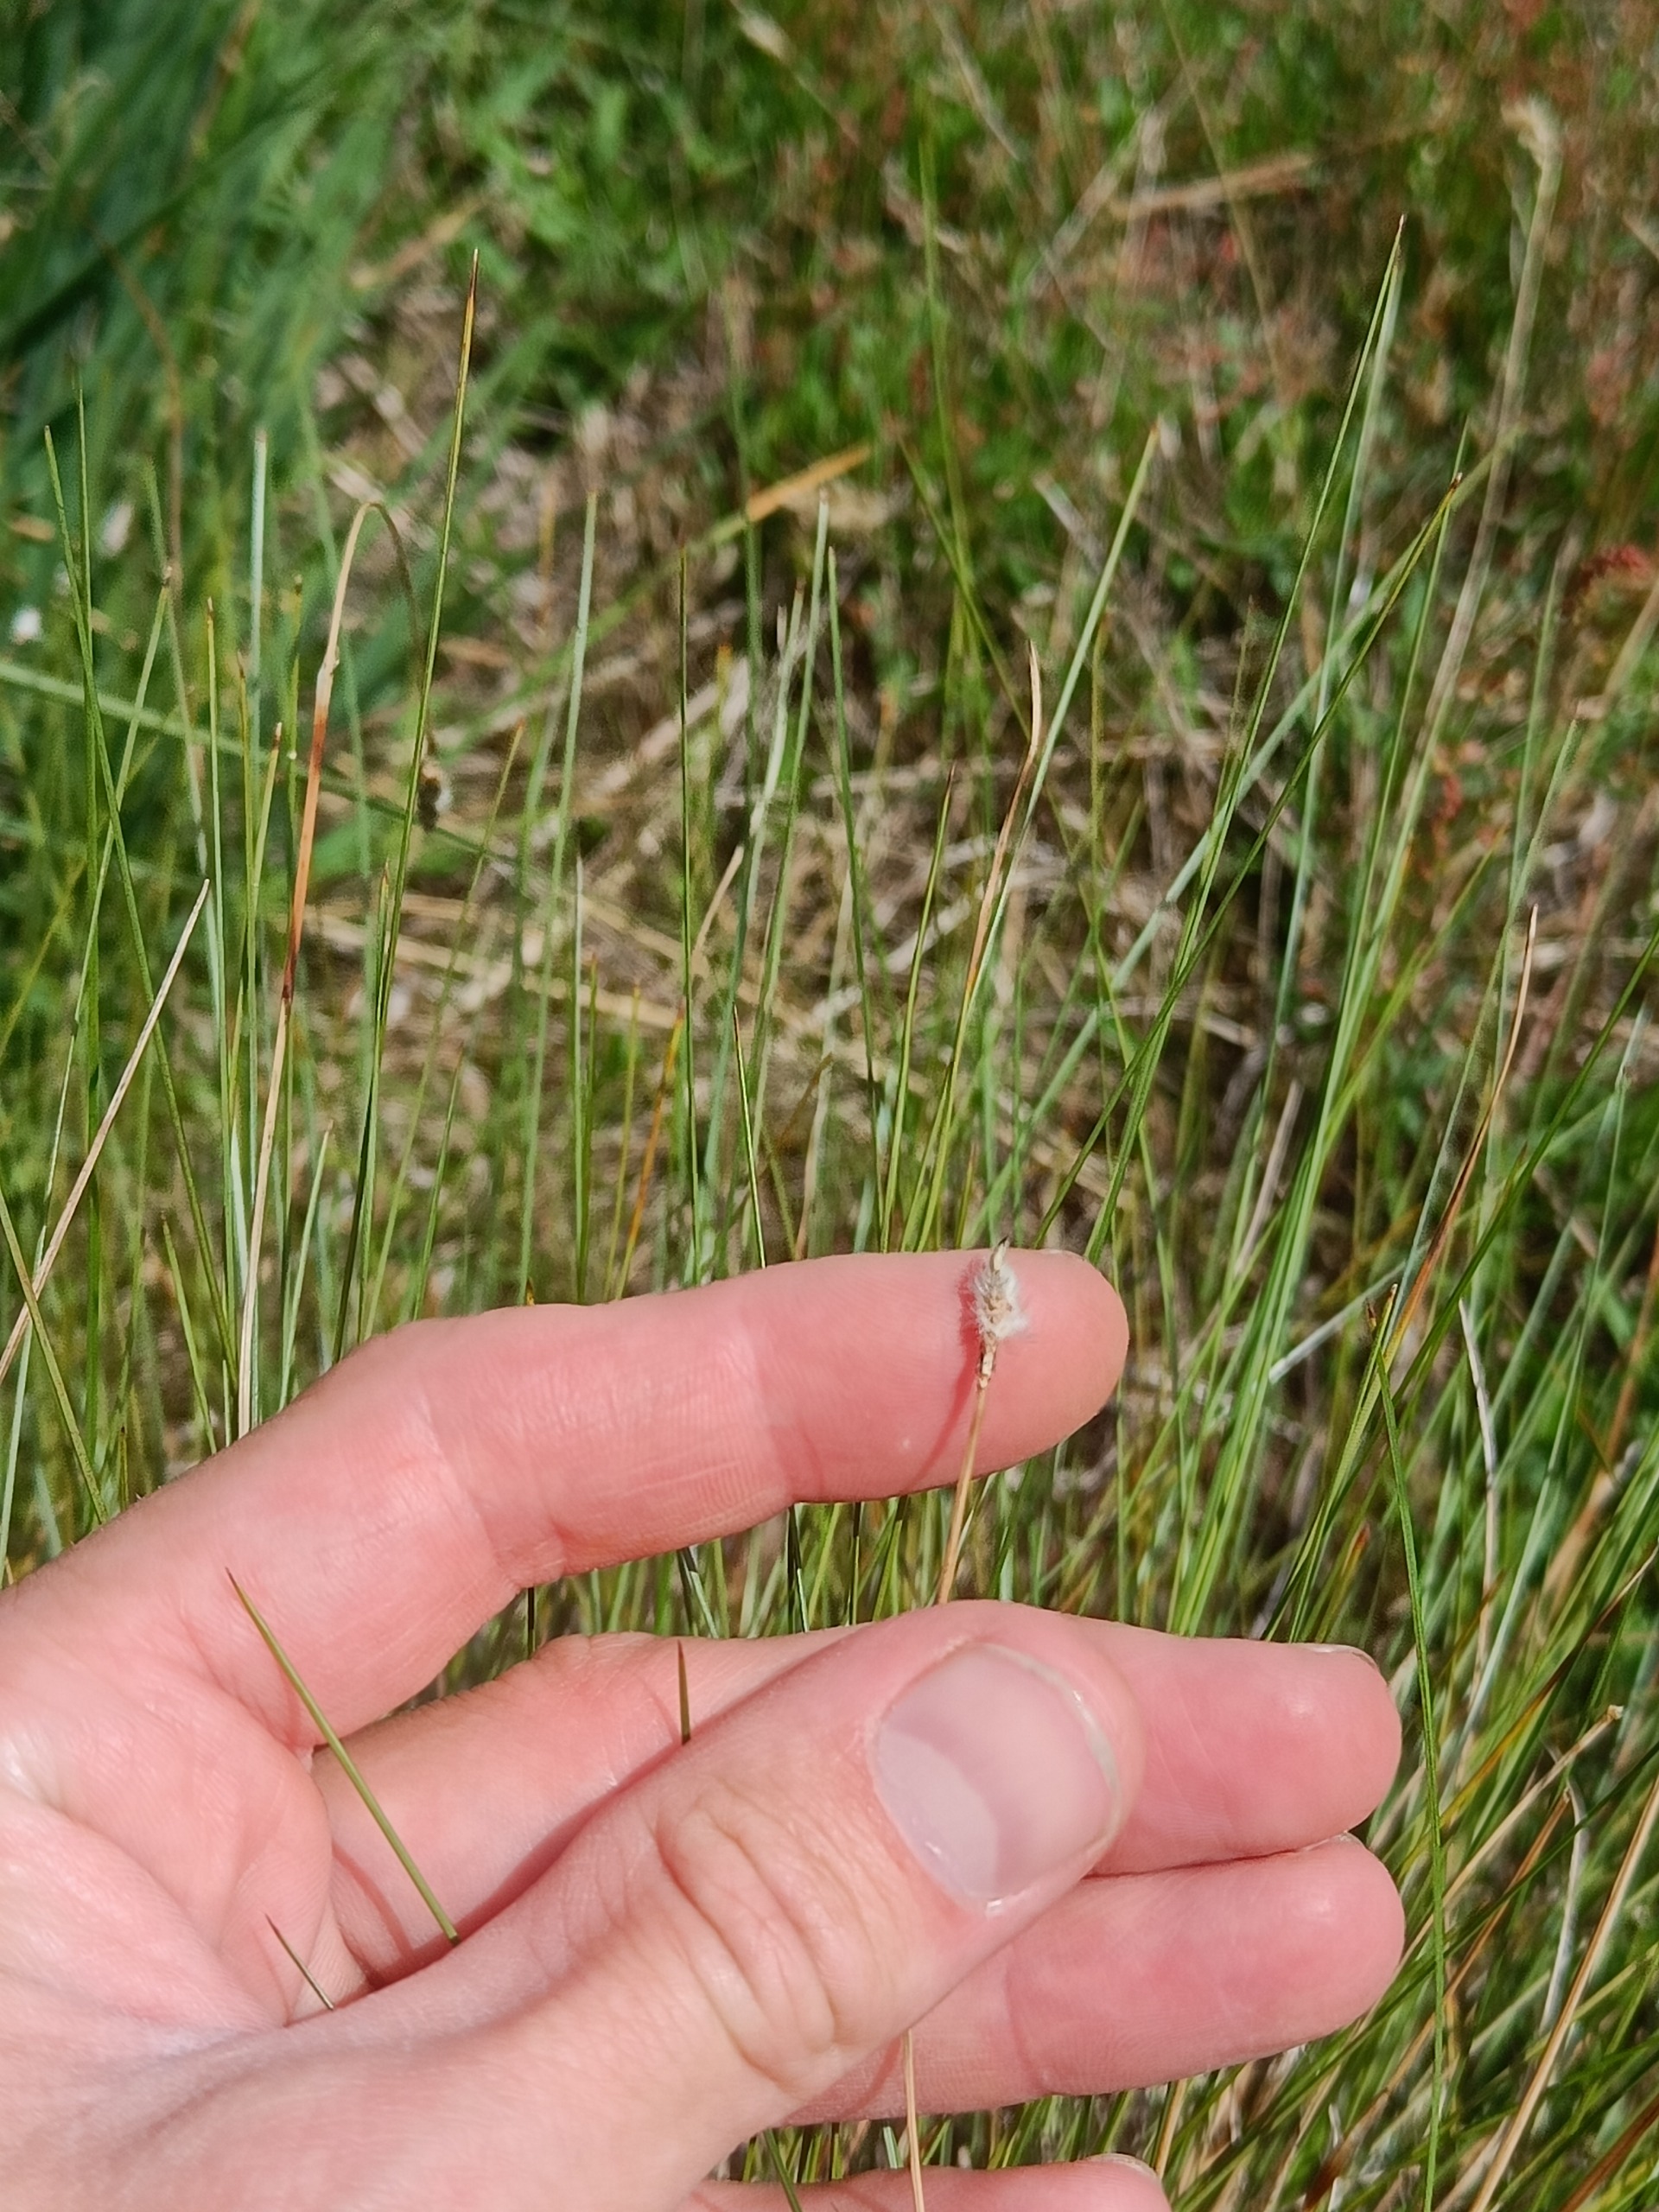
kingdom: Plantae
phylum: Tracheophyta
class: Liliopsida
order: Poales
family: Cyperaceae
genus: Eriophorum
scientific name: Eriophorum vaginatum
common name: Tue-kæruld
